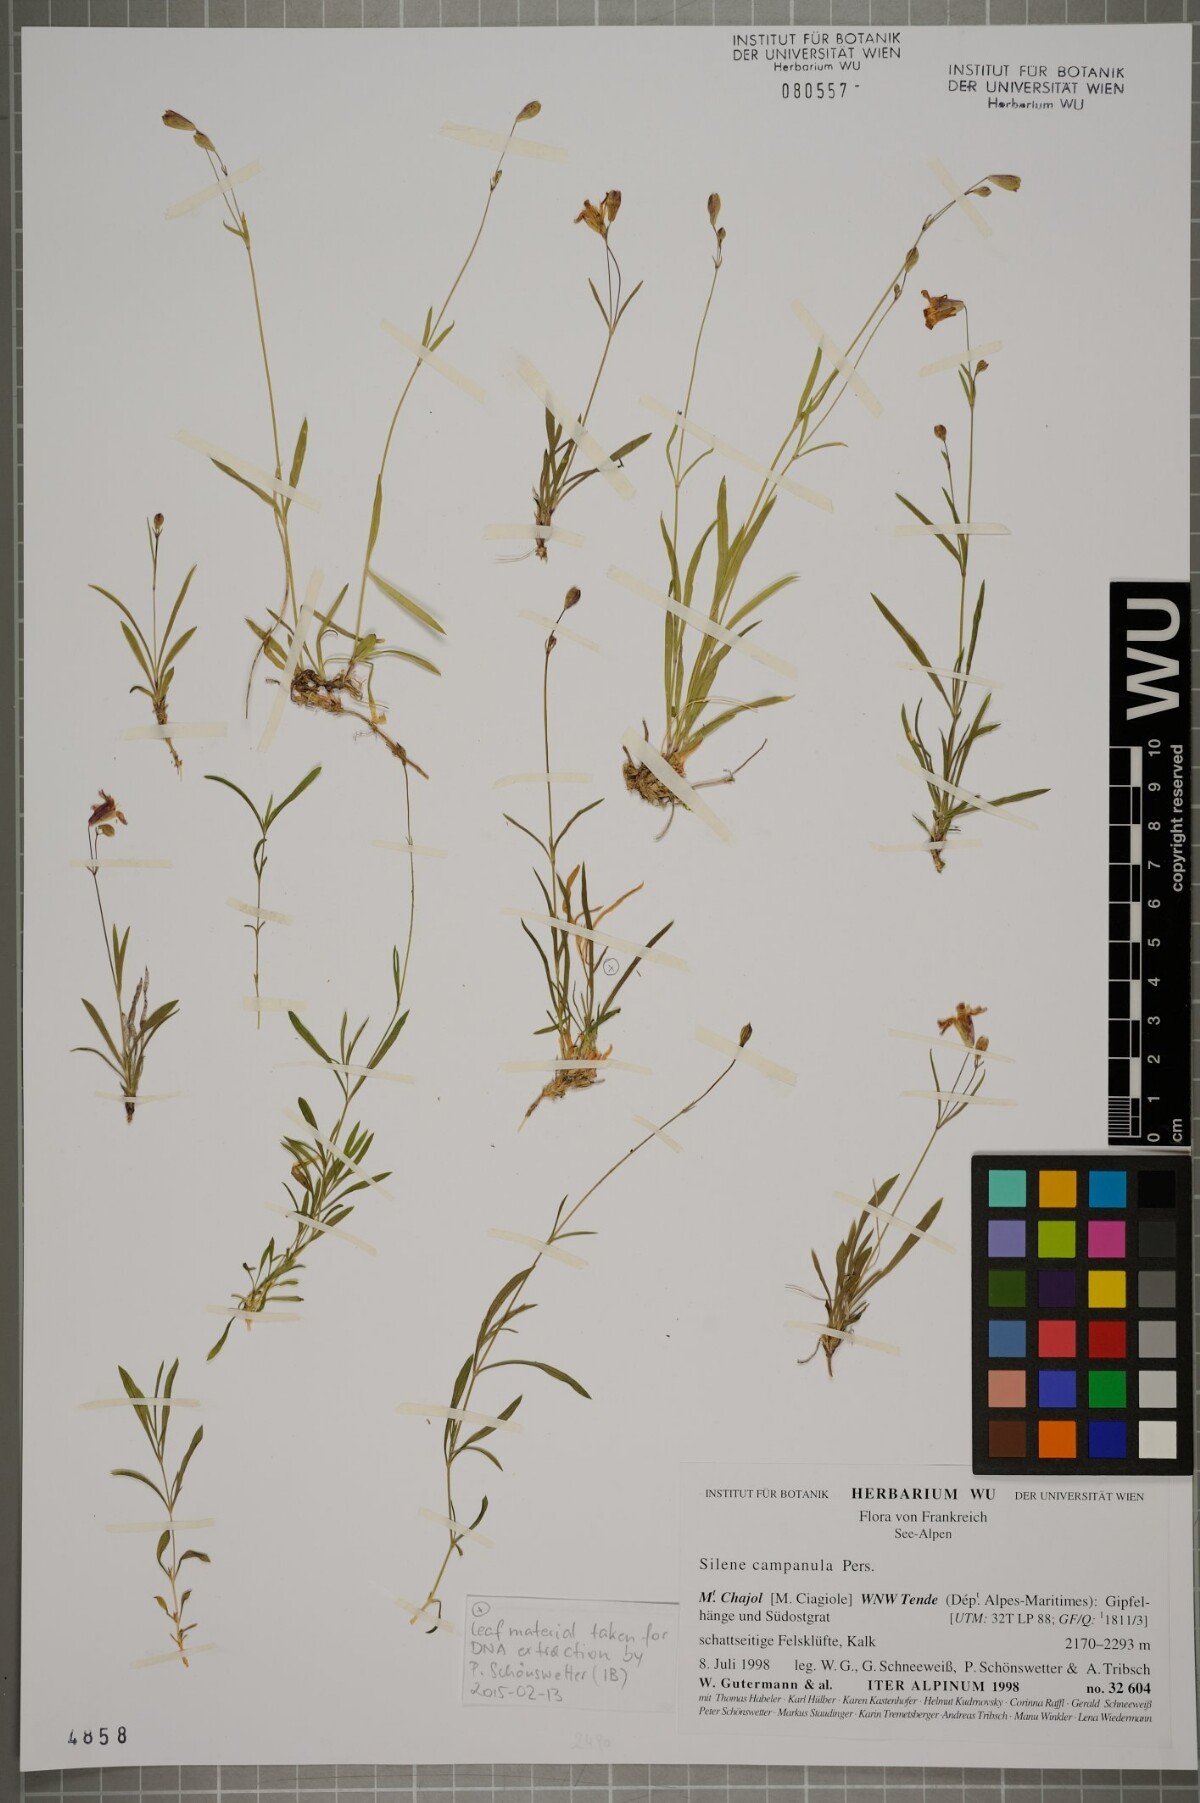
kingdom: Plantae
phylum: Tracheophyta
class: Magnoliopsida
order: Caryophyllales
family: Caryophyllaceae
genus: Silene
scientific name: Silene campanula
